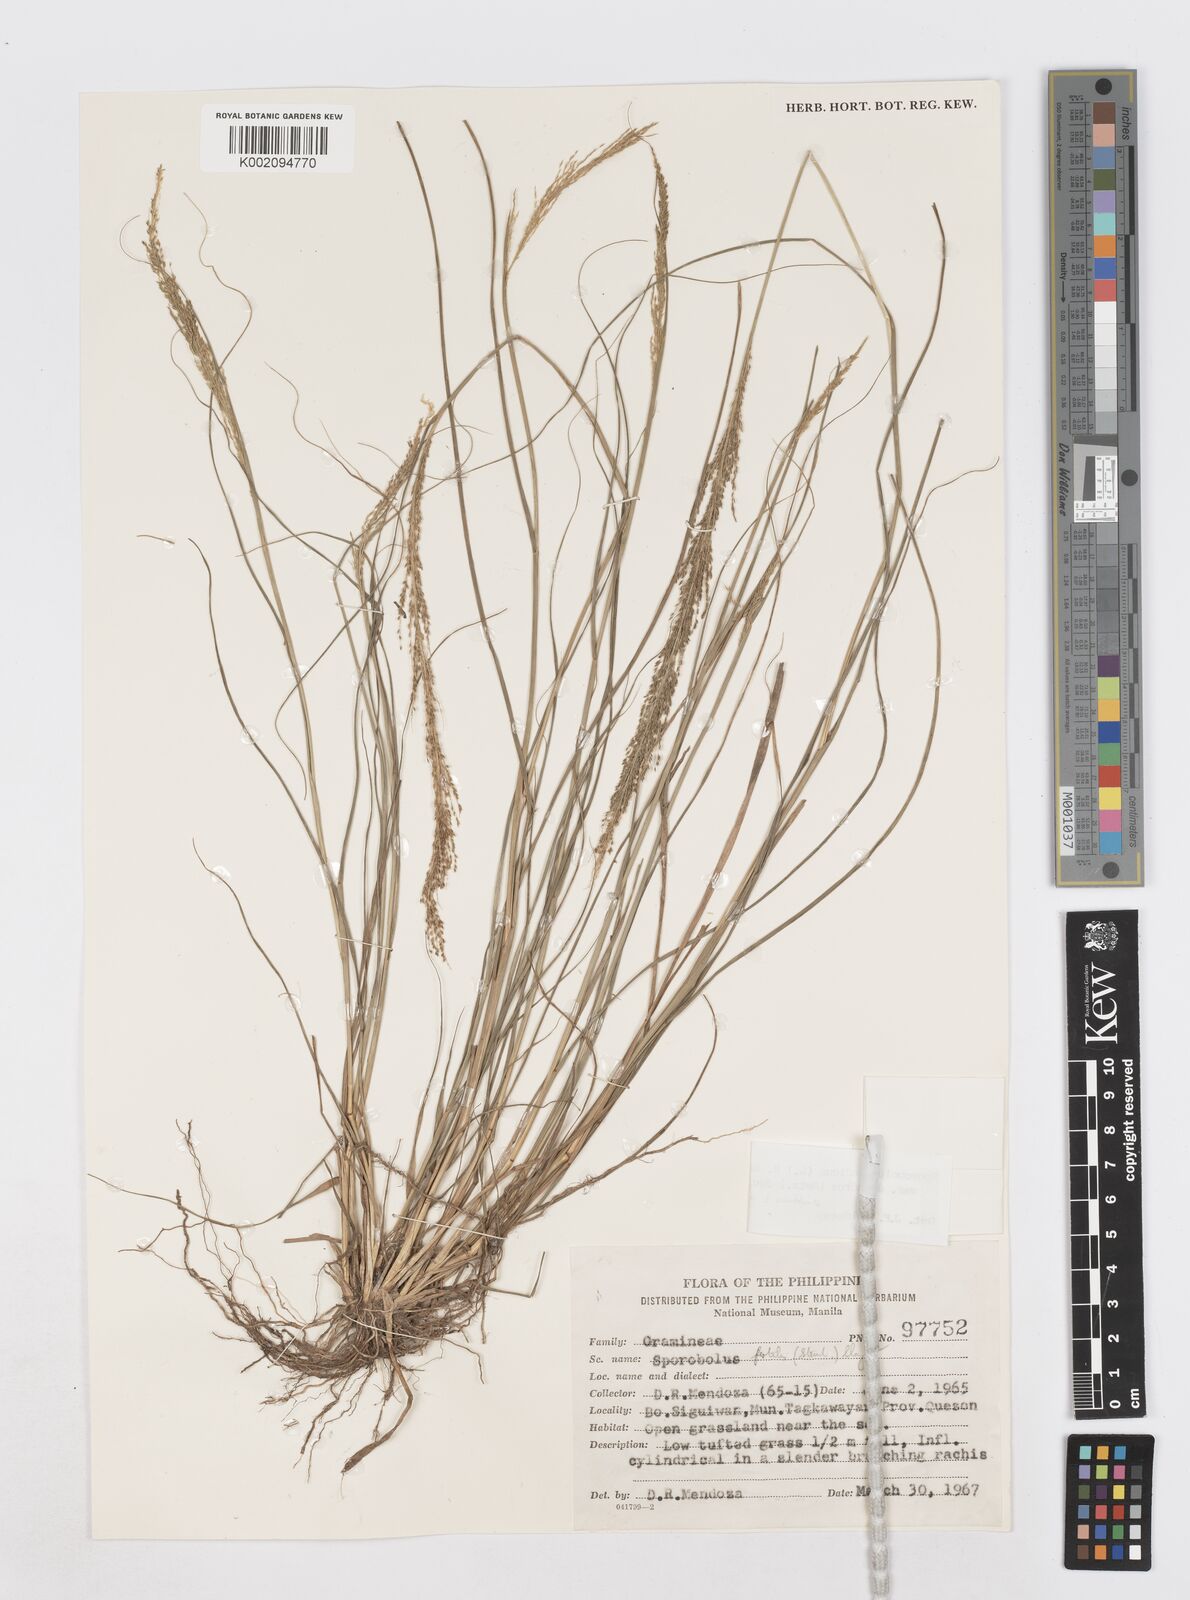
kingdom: Plantae
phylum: Tracheophyta
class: Liliopsida
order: Poales
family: Poaceae
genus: Sporobolus
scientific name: Sporobolus diandrus
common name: Tussock dropseed
